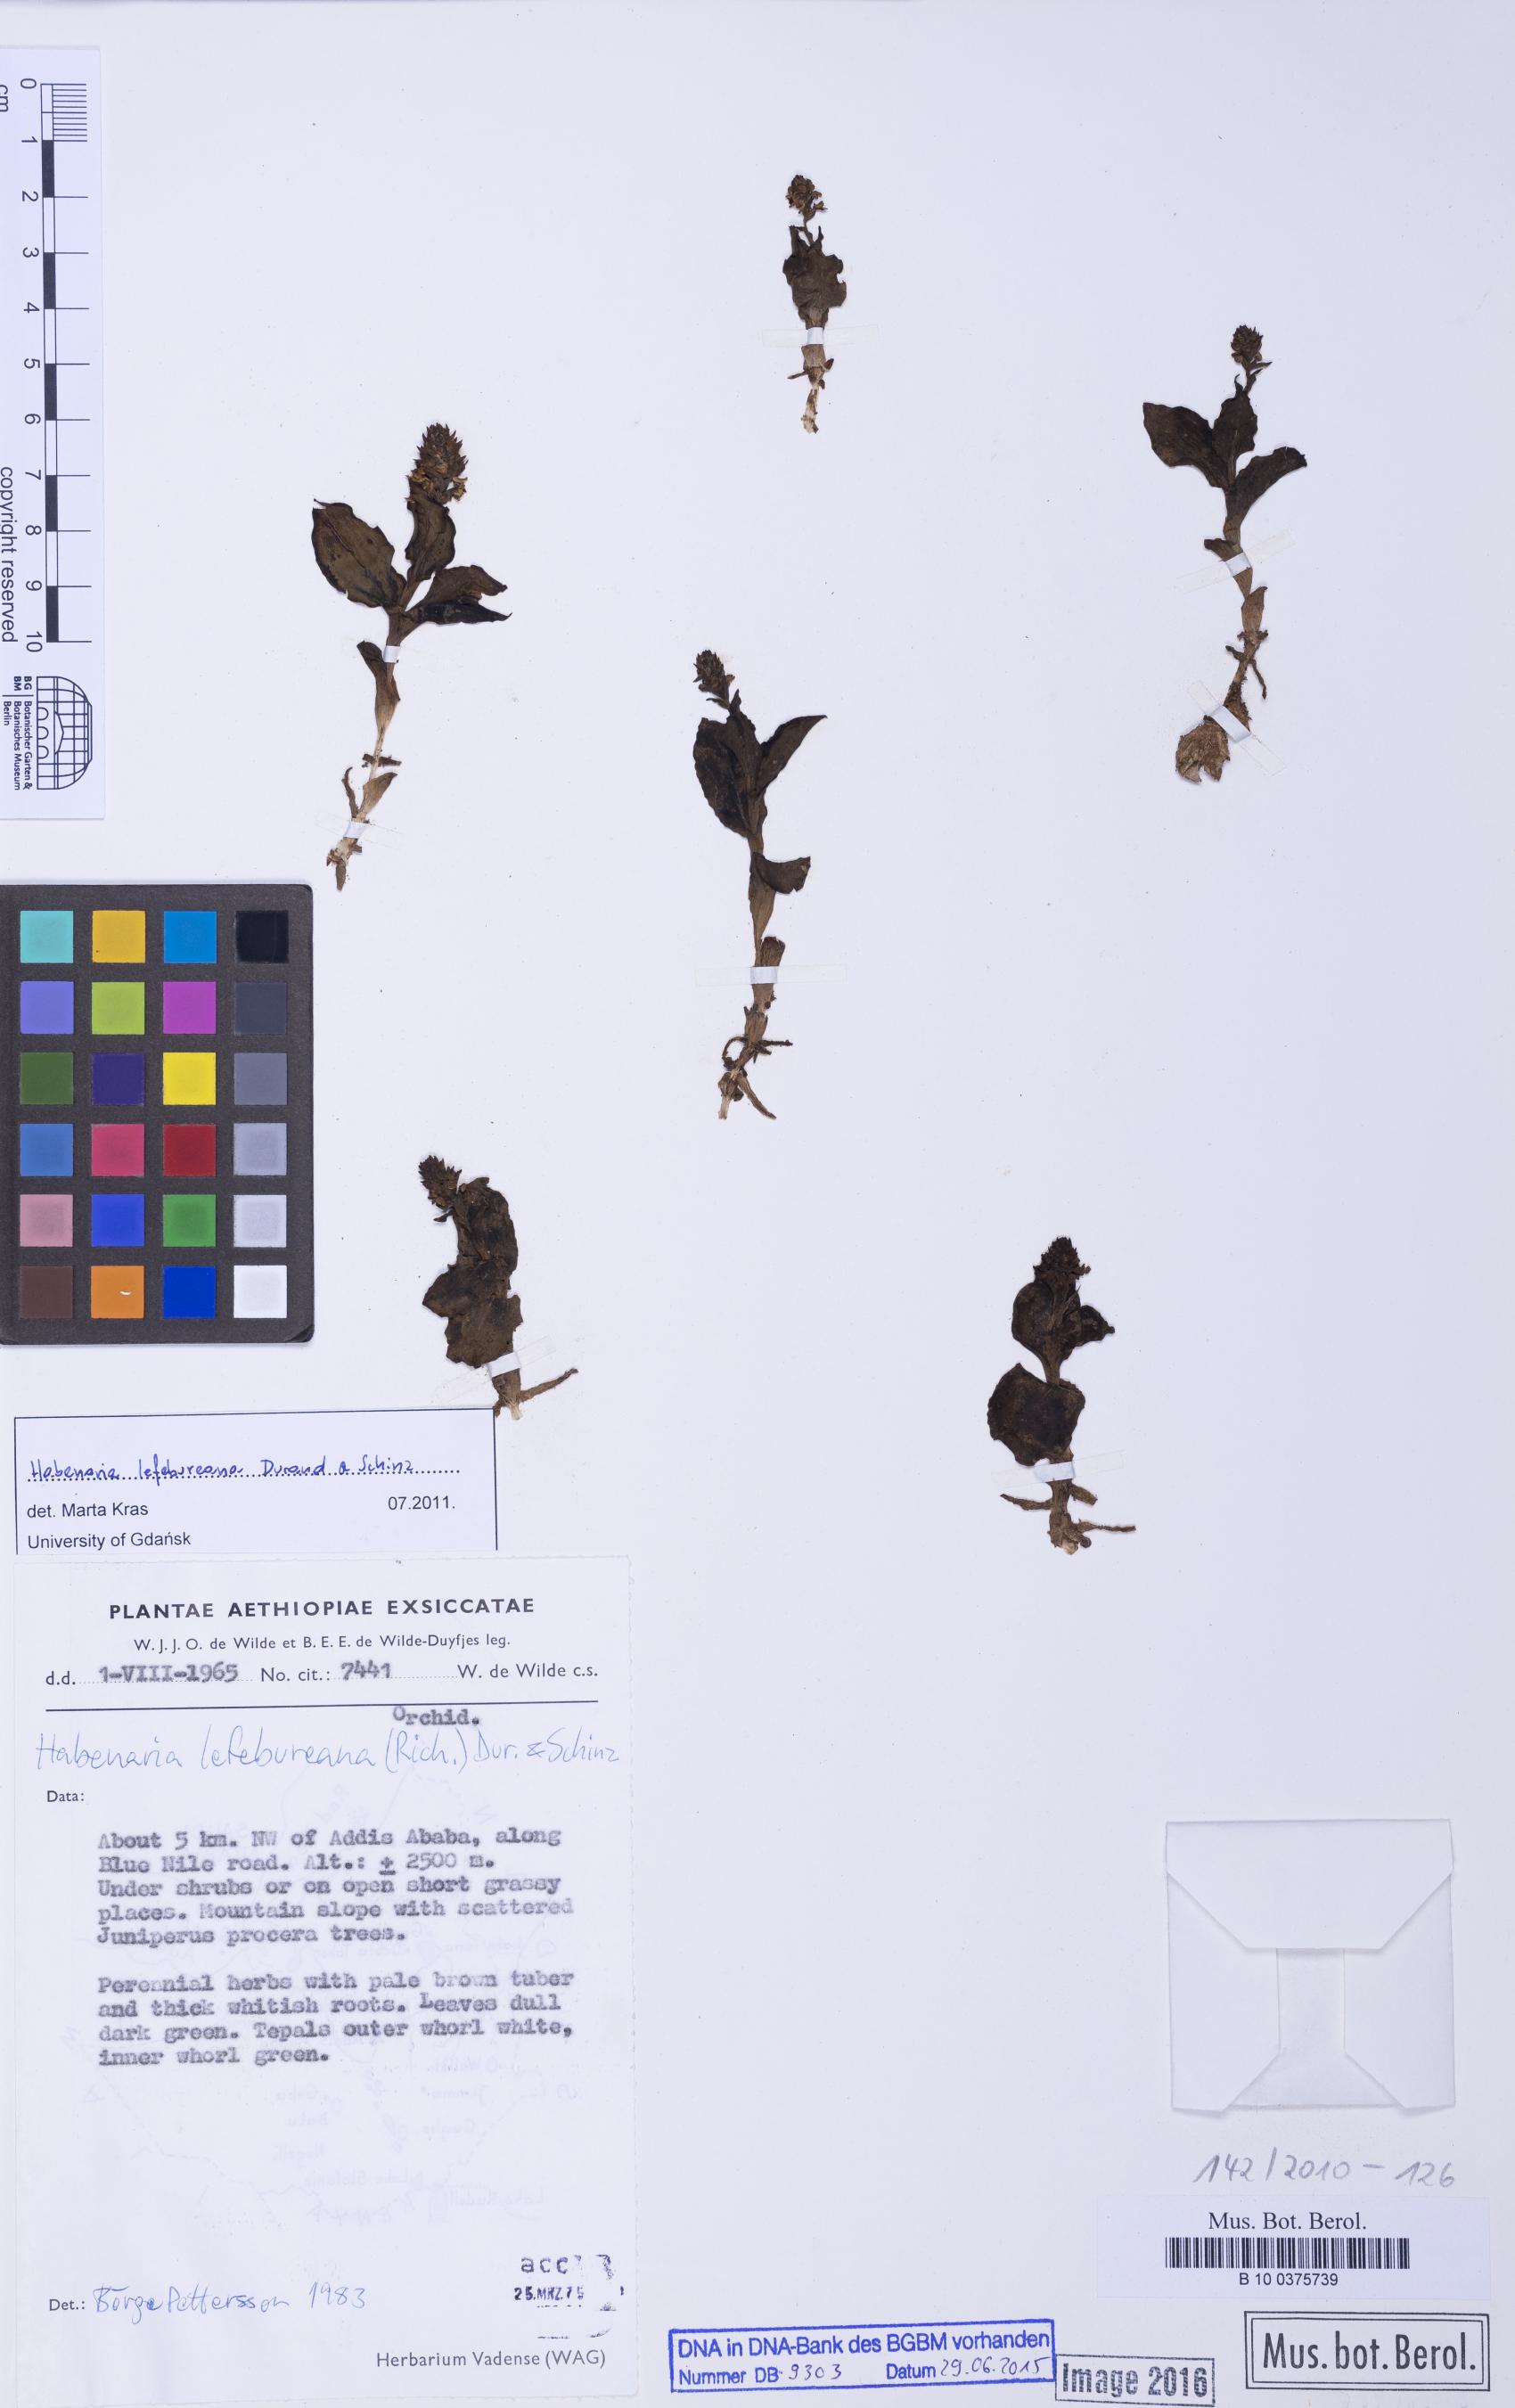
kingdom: Plantae
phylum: Tracheophyta
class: Liliopsida
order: Asparagales
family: Orchidaceae
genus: Habenaria
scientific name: Habenaria lefebureana
